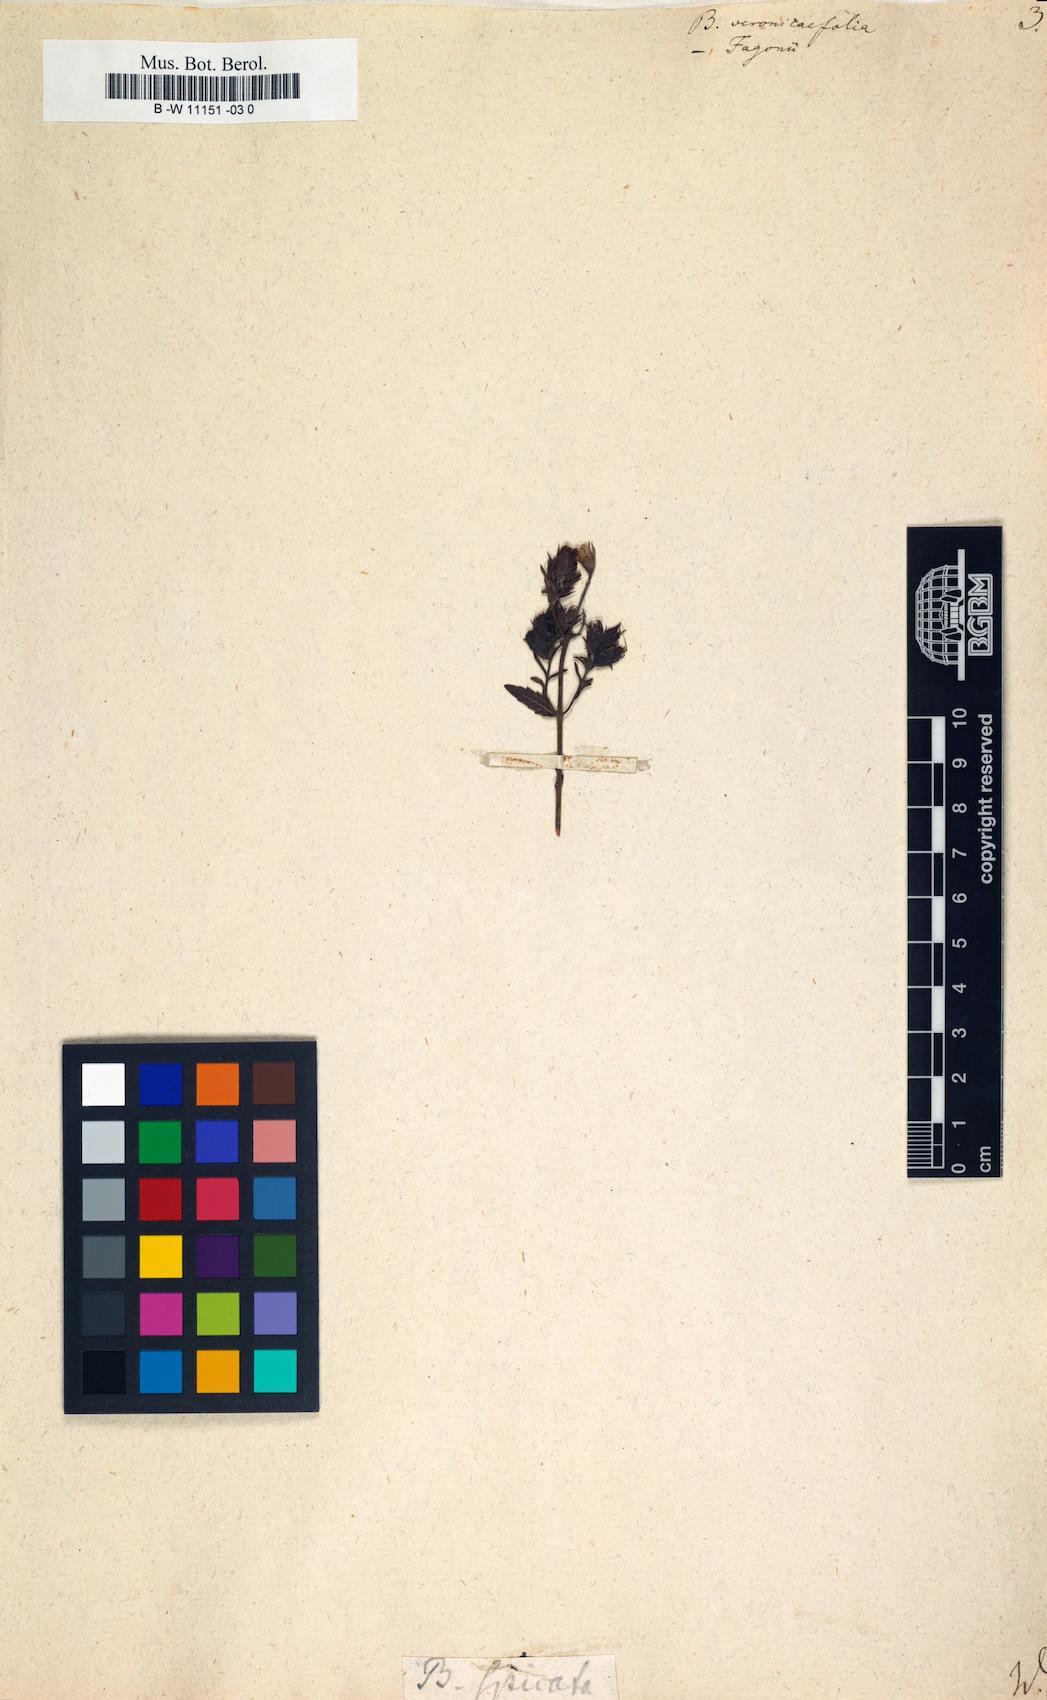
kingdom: Plantae
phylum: Tracheophyta
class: Magnoliopsida
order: Lamiales
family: Scrophulariaceae
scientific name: Scrophulariaceae
